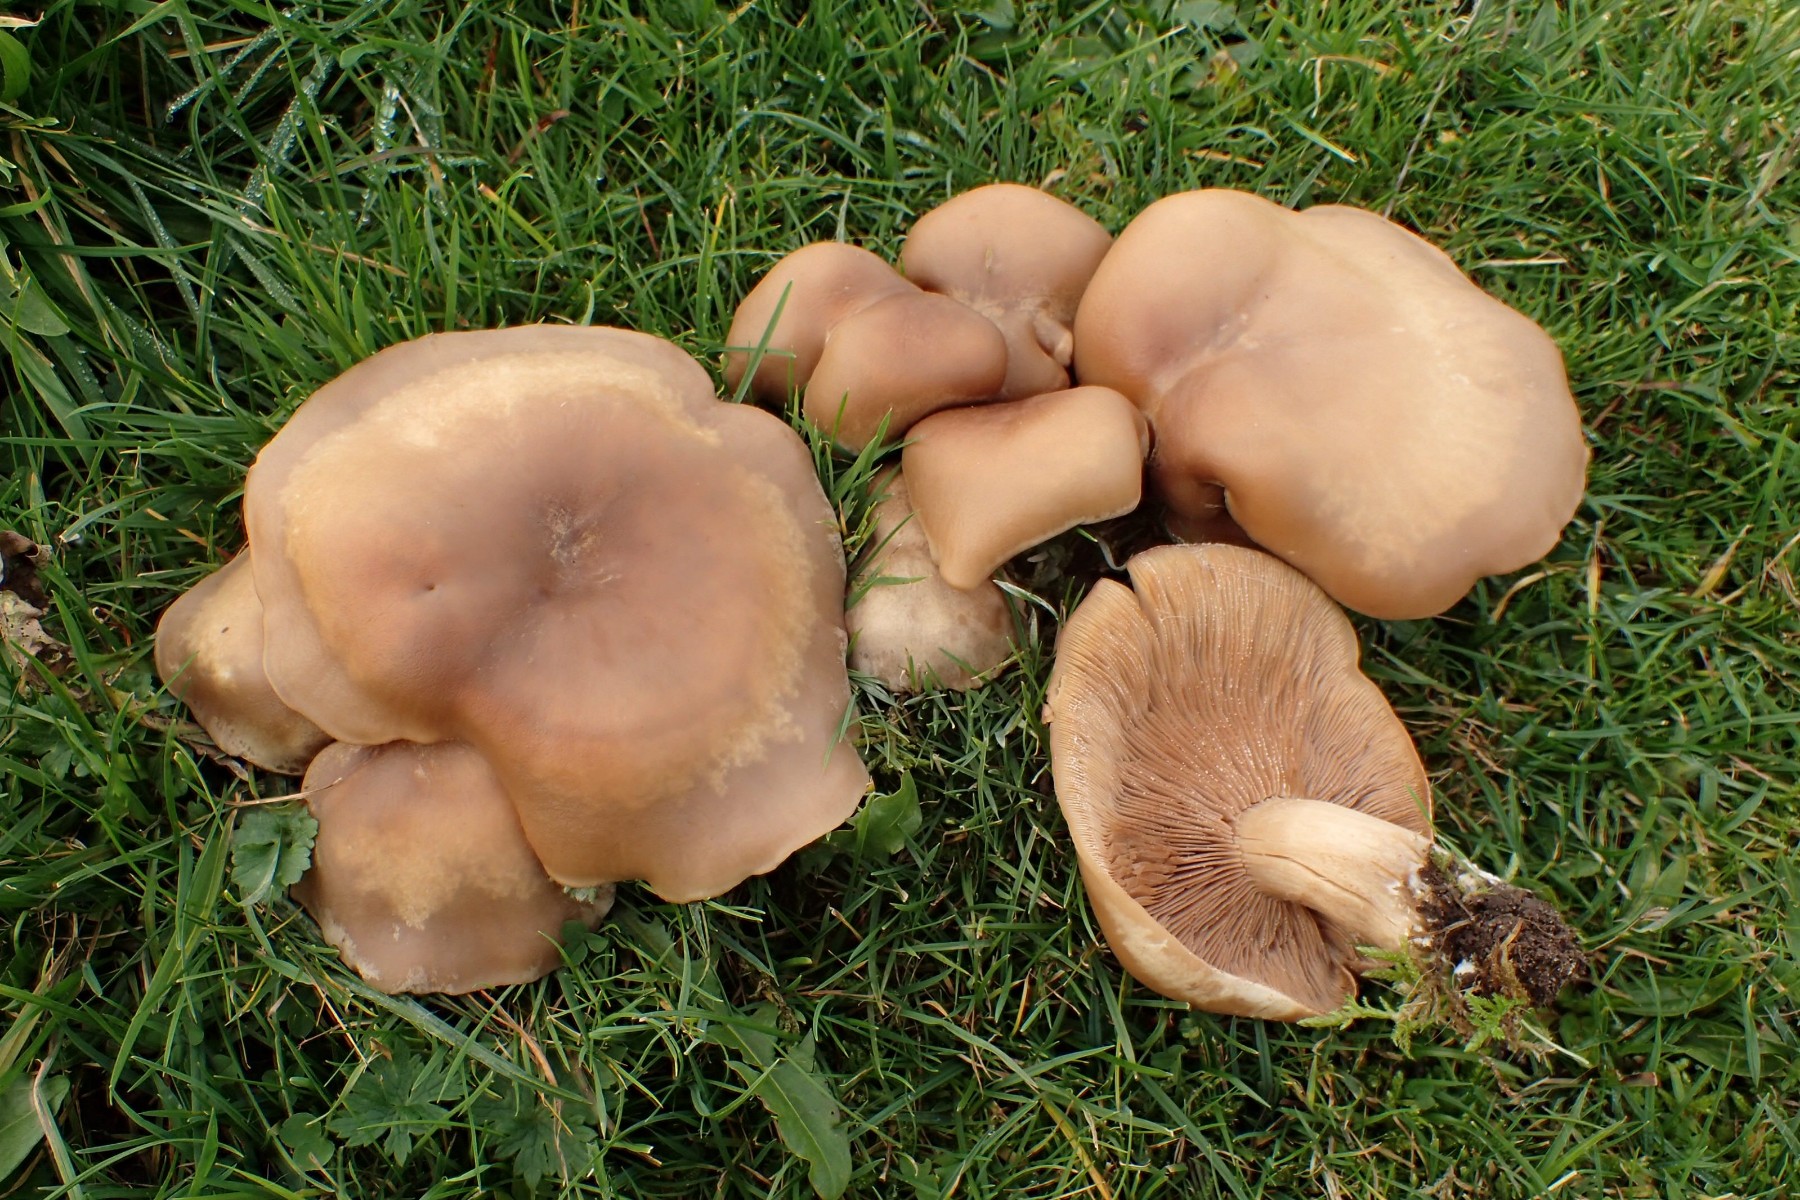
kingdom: Fungi
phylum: Basidiomycota
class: Agaricomycetes
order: Agaricales
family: Tricholomataceae
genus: Lepista
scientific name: Lepista panaeolus
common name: marmoreret hekseringshat
